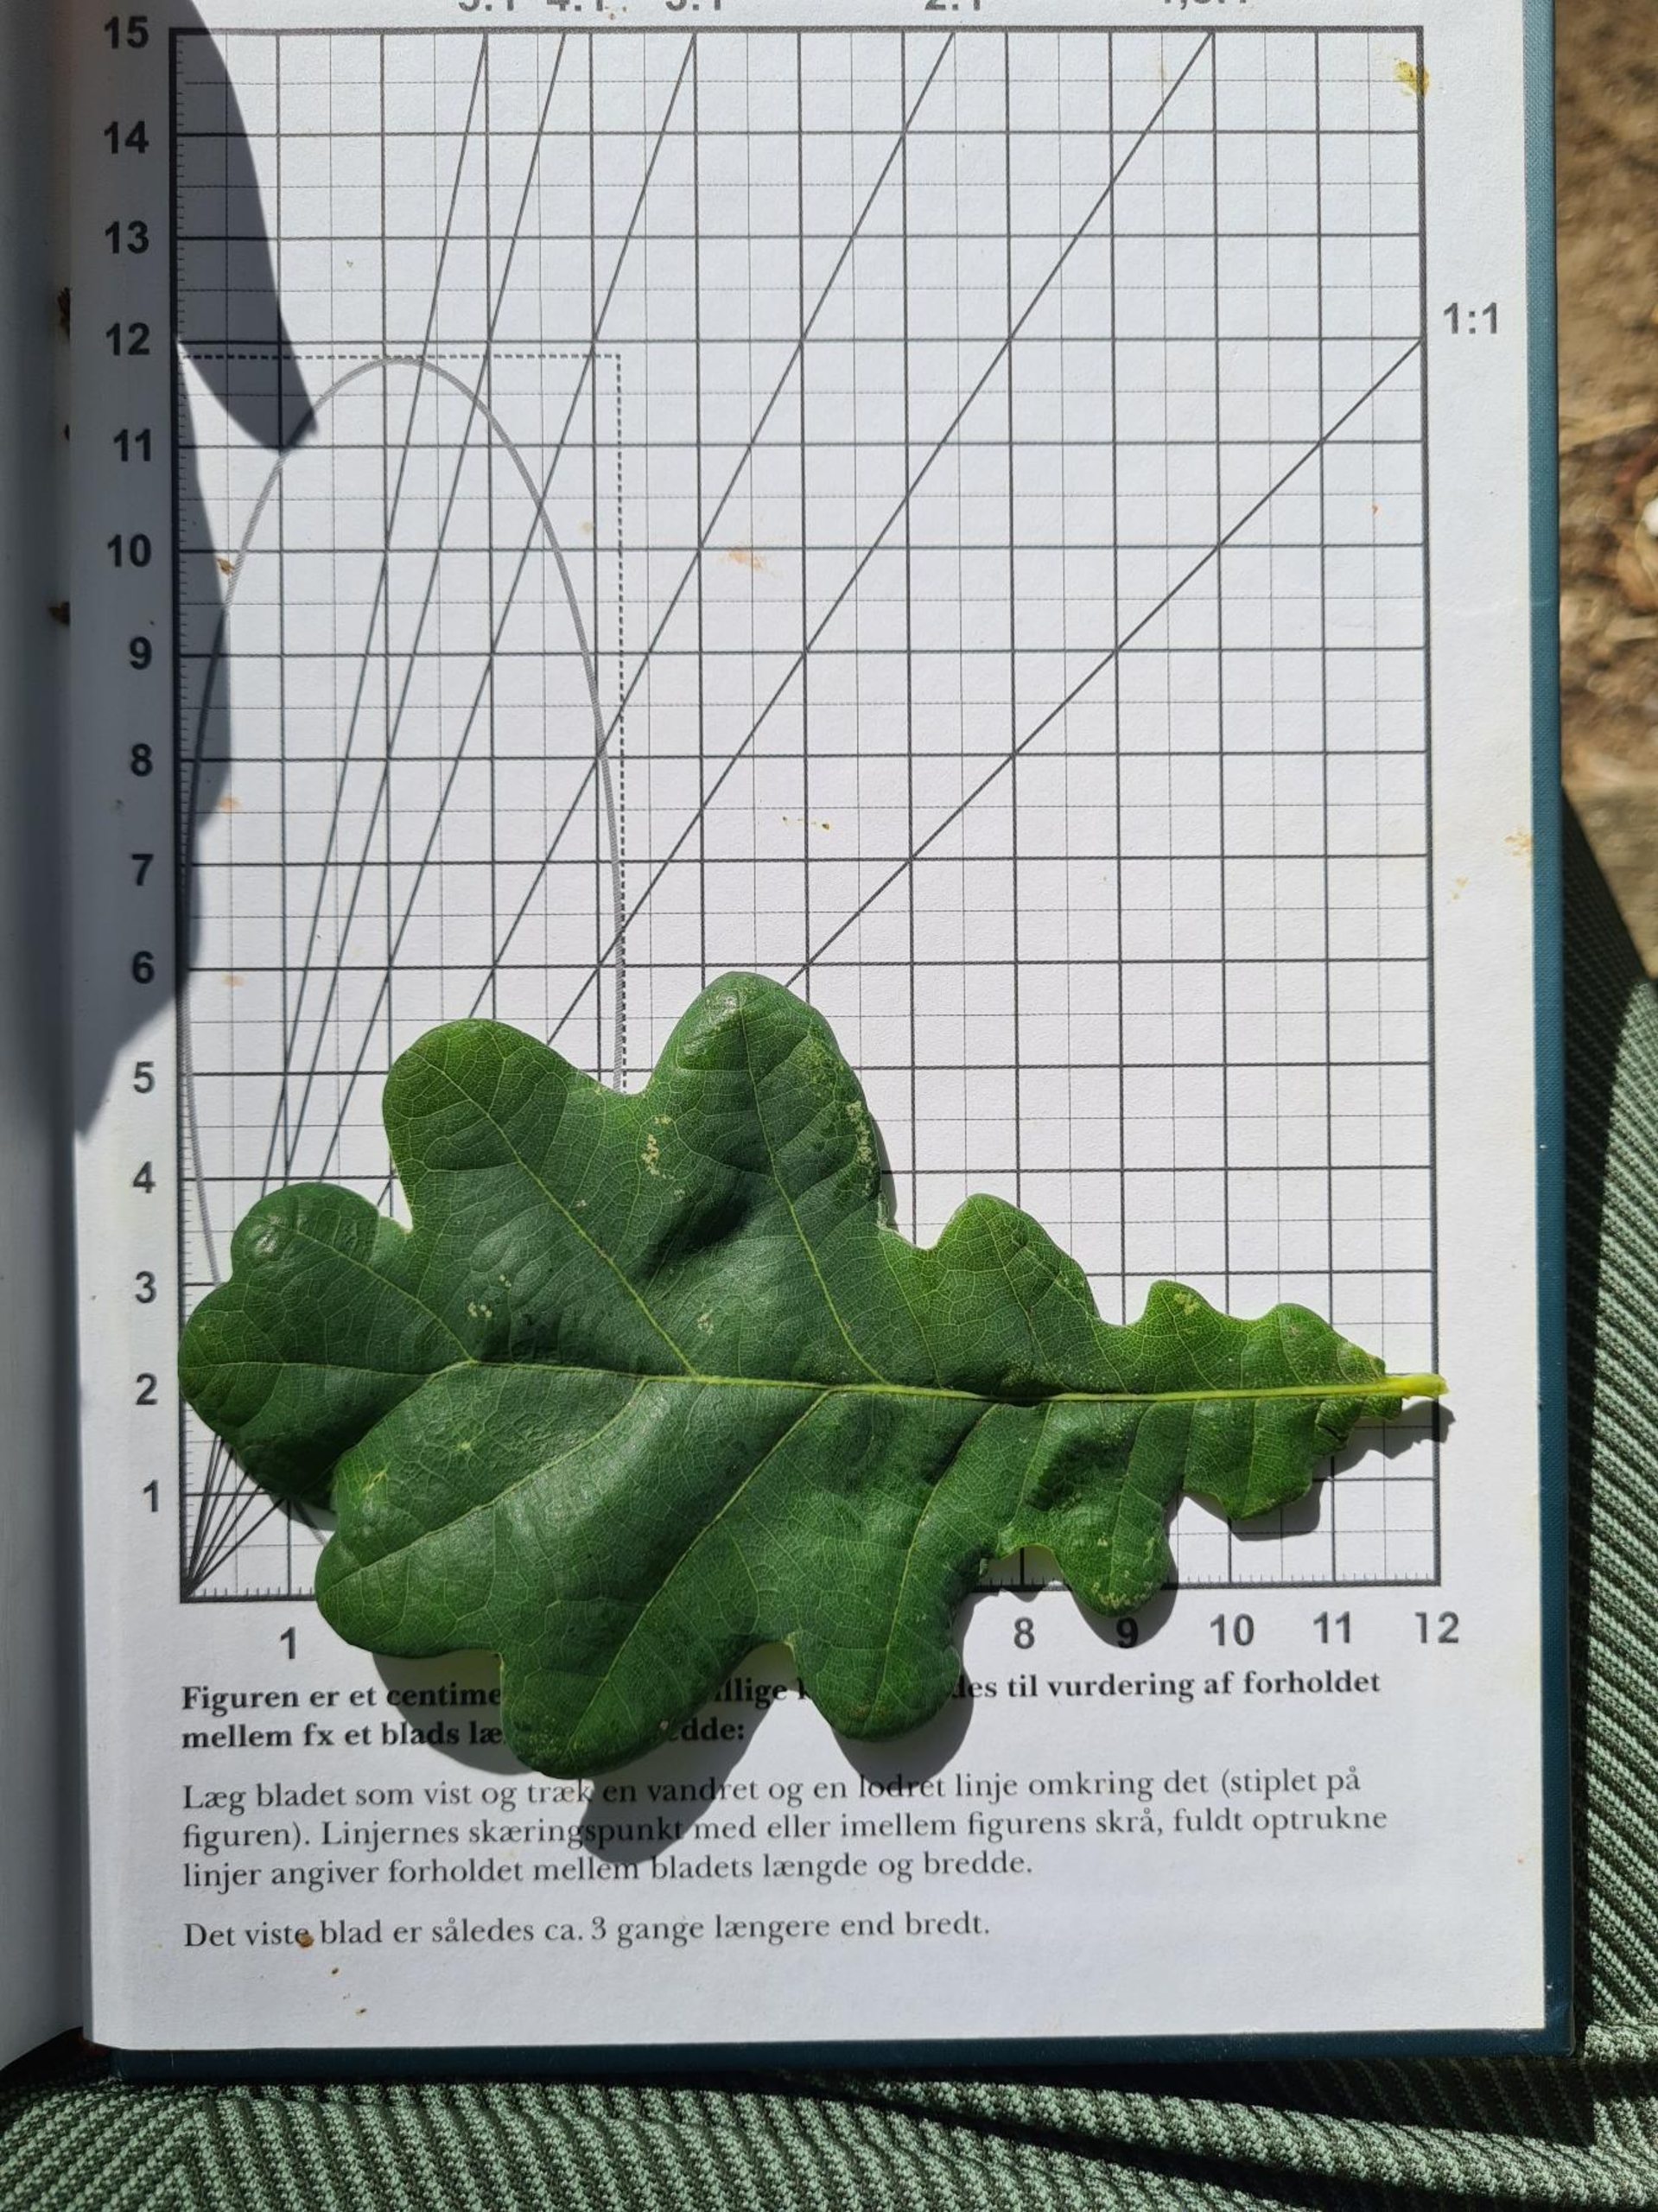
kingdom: Plantae
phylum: Tracheophyta
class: Magnoliopsida
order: Fagales
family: Fagaceae
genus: Quercus
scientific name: Quercus robur
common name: Stilk-eg/almindelig eg
